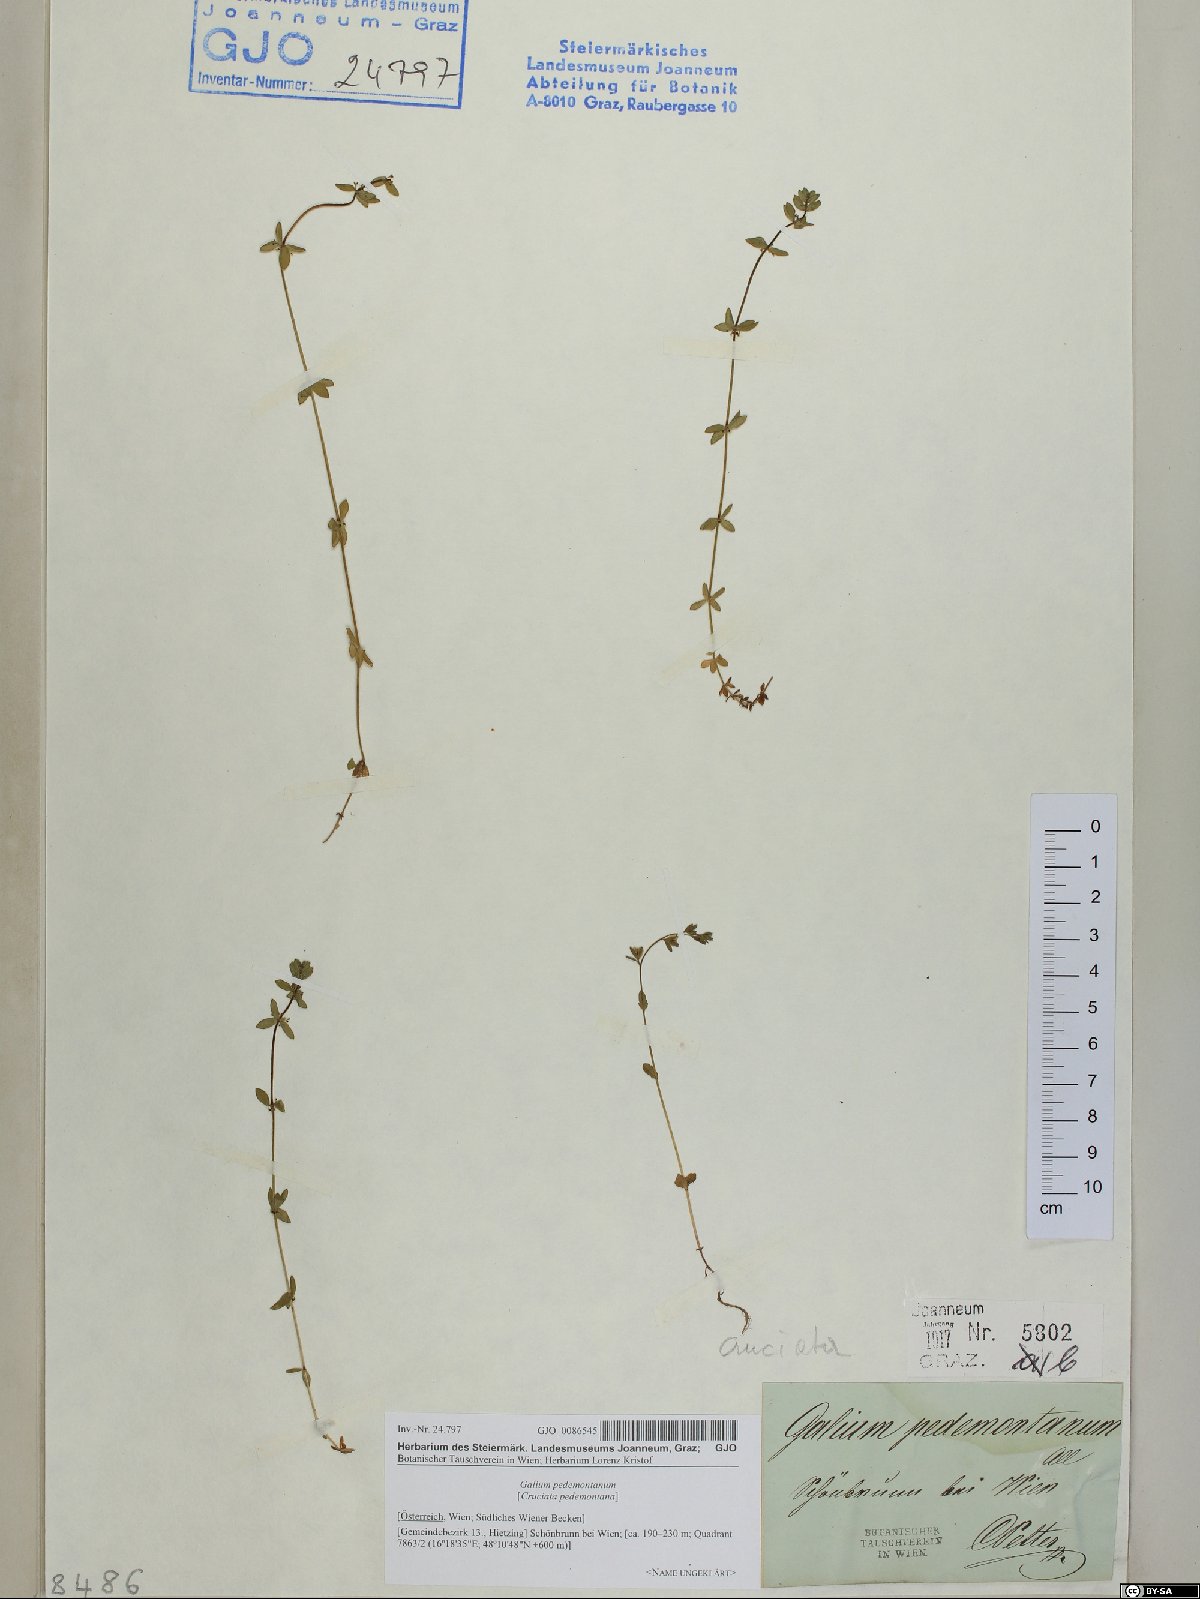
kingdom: Plantae
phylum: Tracheophyta
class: Magnoliopsida
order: Gentianales
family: Rubiaceae
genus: Cruciata
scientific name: Cruciata pedemontana
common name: Piedmont bedstraw
